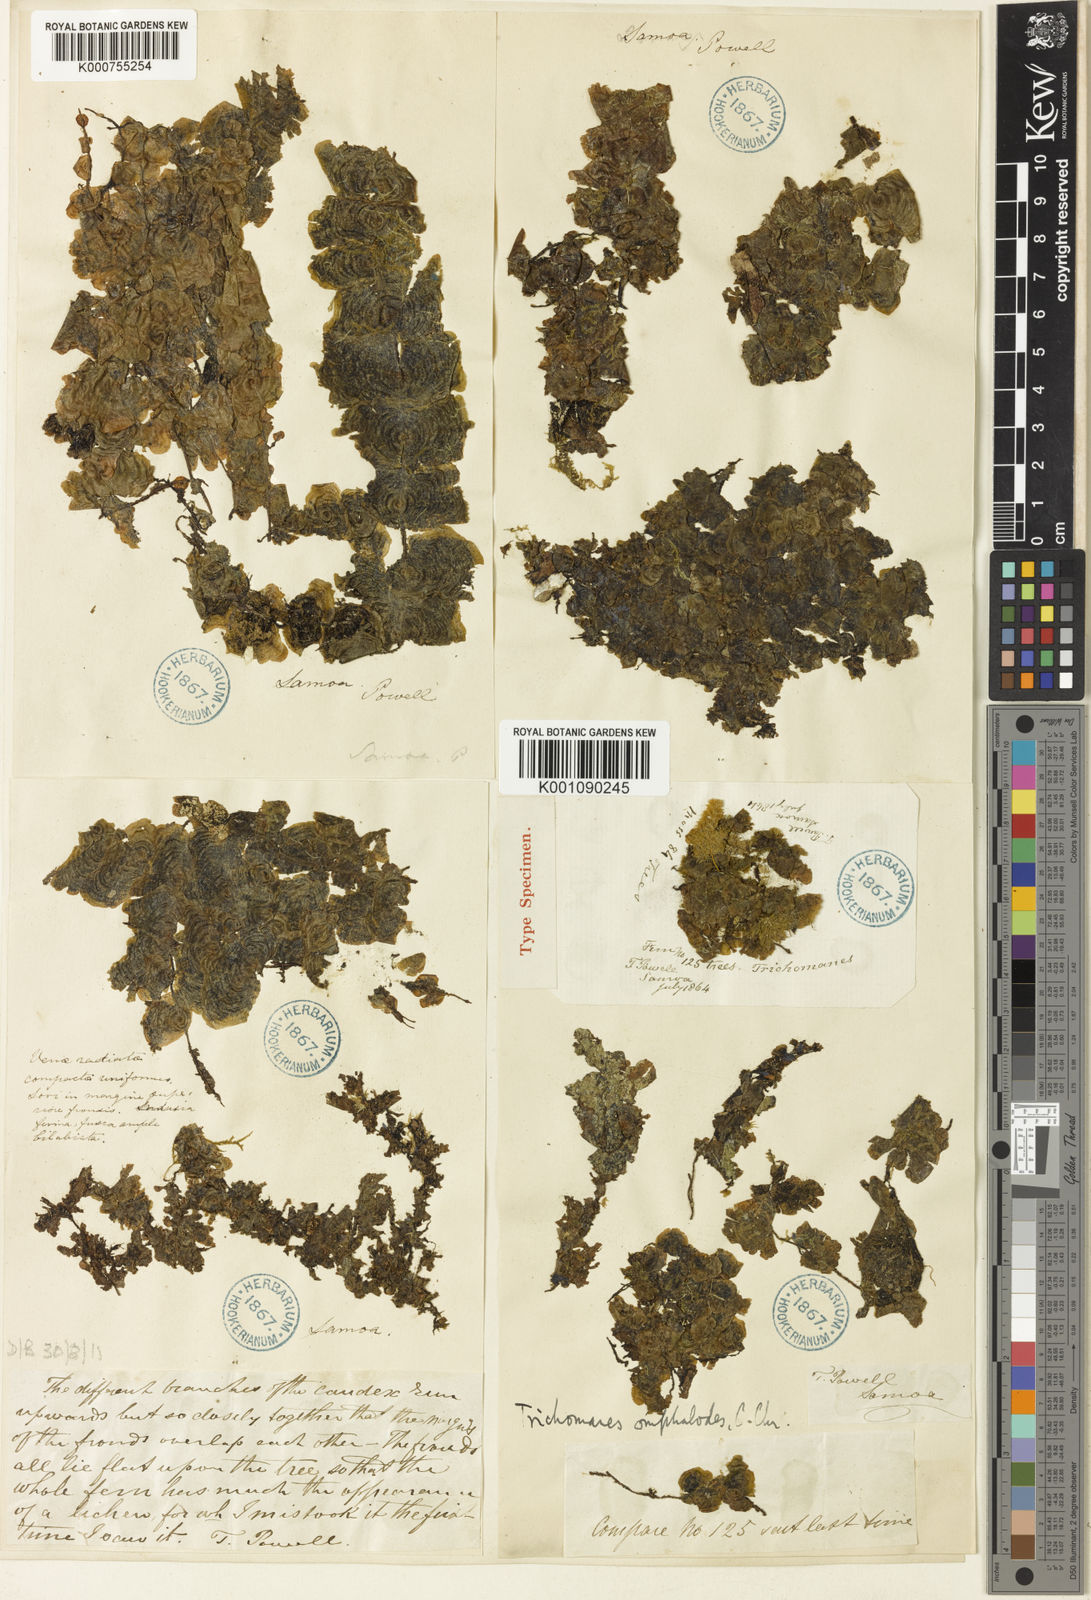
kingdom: Plantae
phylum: Tracheophyta
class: Polypodiopsida
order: Hymenophyllales
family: Hymenophyllaceae
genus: Didymoglossum
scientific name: Didymoglossum tahitense
